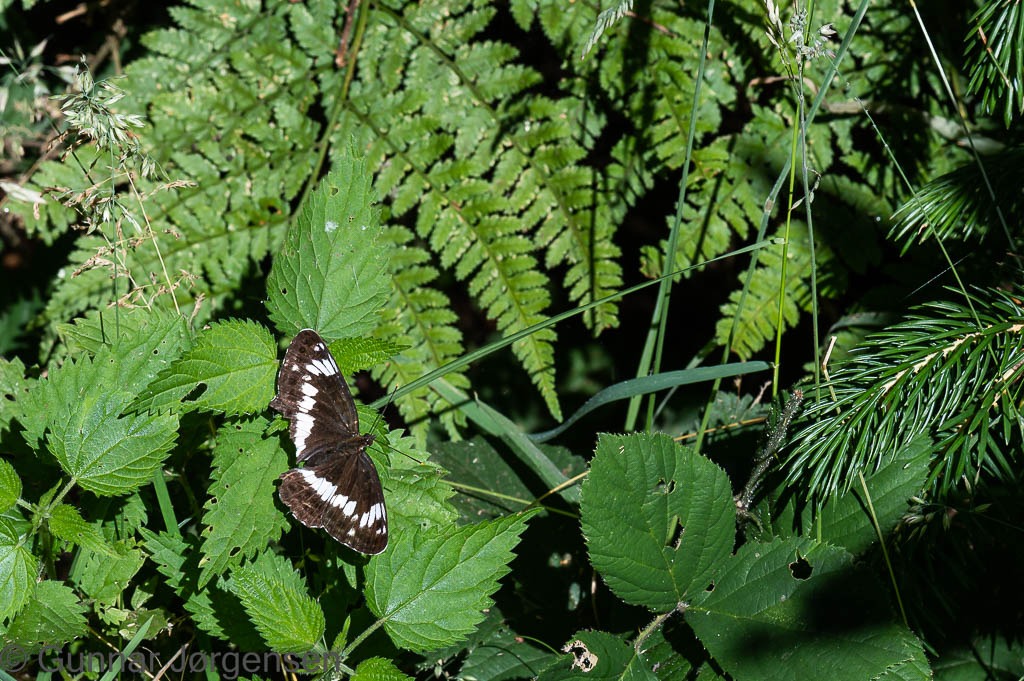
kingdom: Animalia
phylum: Arthropoda
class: Insecta
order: Lepidoptera
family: Nymphalidae
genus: Ladoga
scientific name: Ladoga camilla
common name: Hvid admiral
